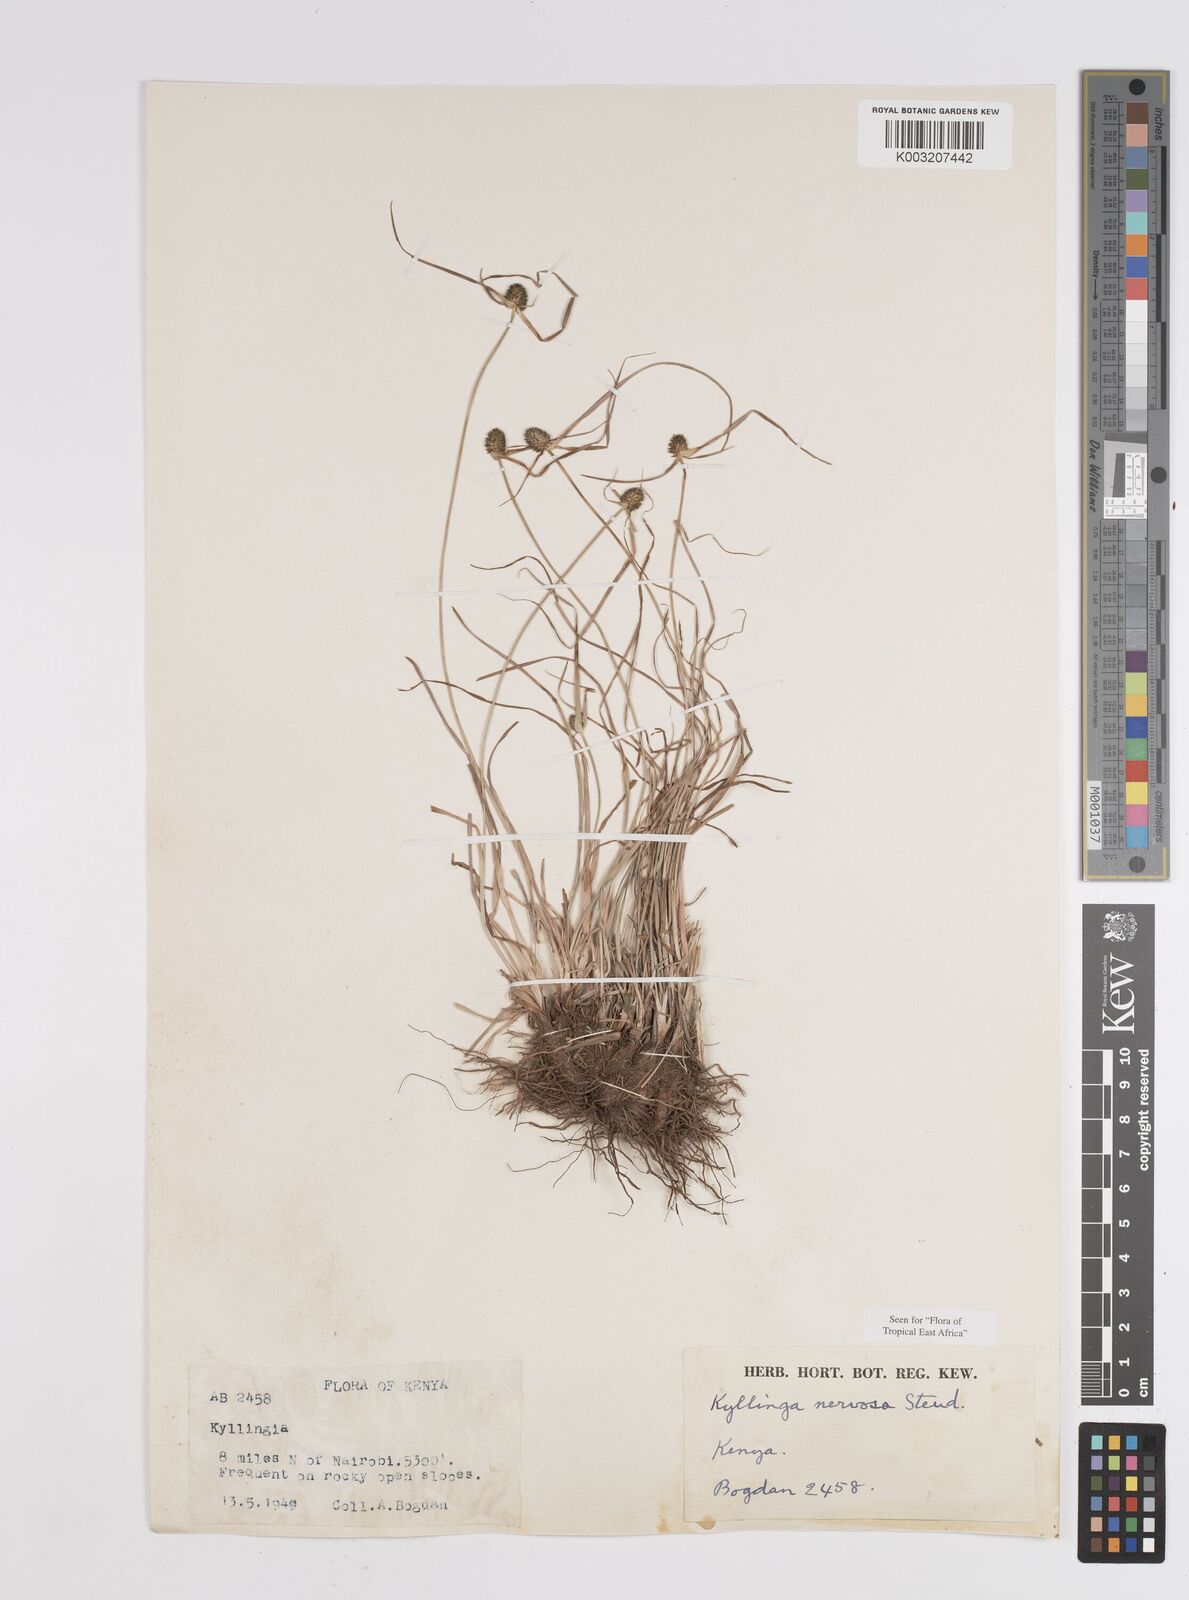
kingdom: Plantae
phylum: Tracheophyta
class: Liliopsida
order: Poales
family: Cyperaceae
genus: Cyperus
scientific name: Cyperus
